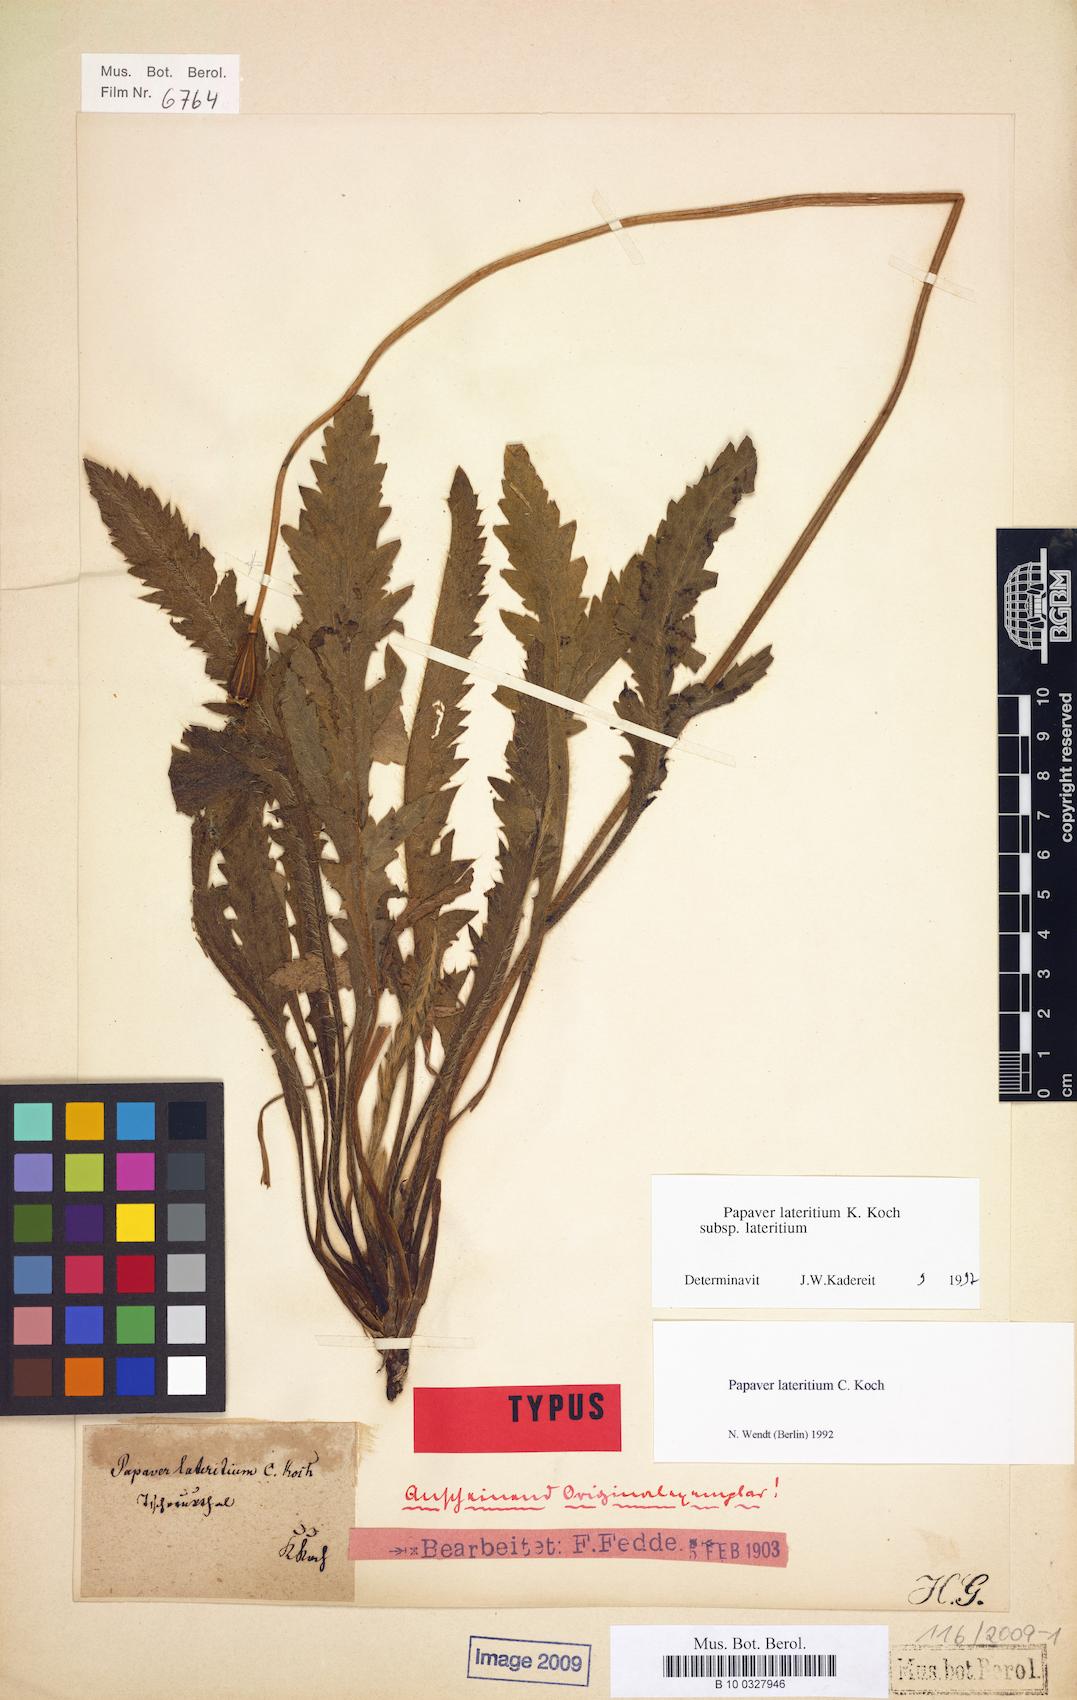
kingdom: Plantae
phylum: Tracheophyta
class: Magnoliopsida
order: Ranunculales
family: Papaveraceae
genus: Papaver
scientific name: Papaver lateritium
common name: Armenian poppy
